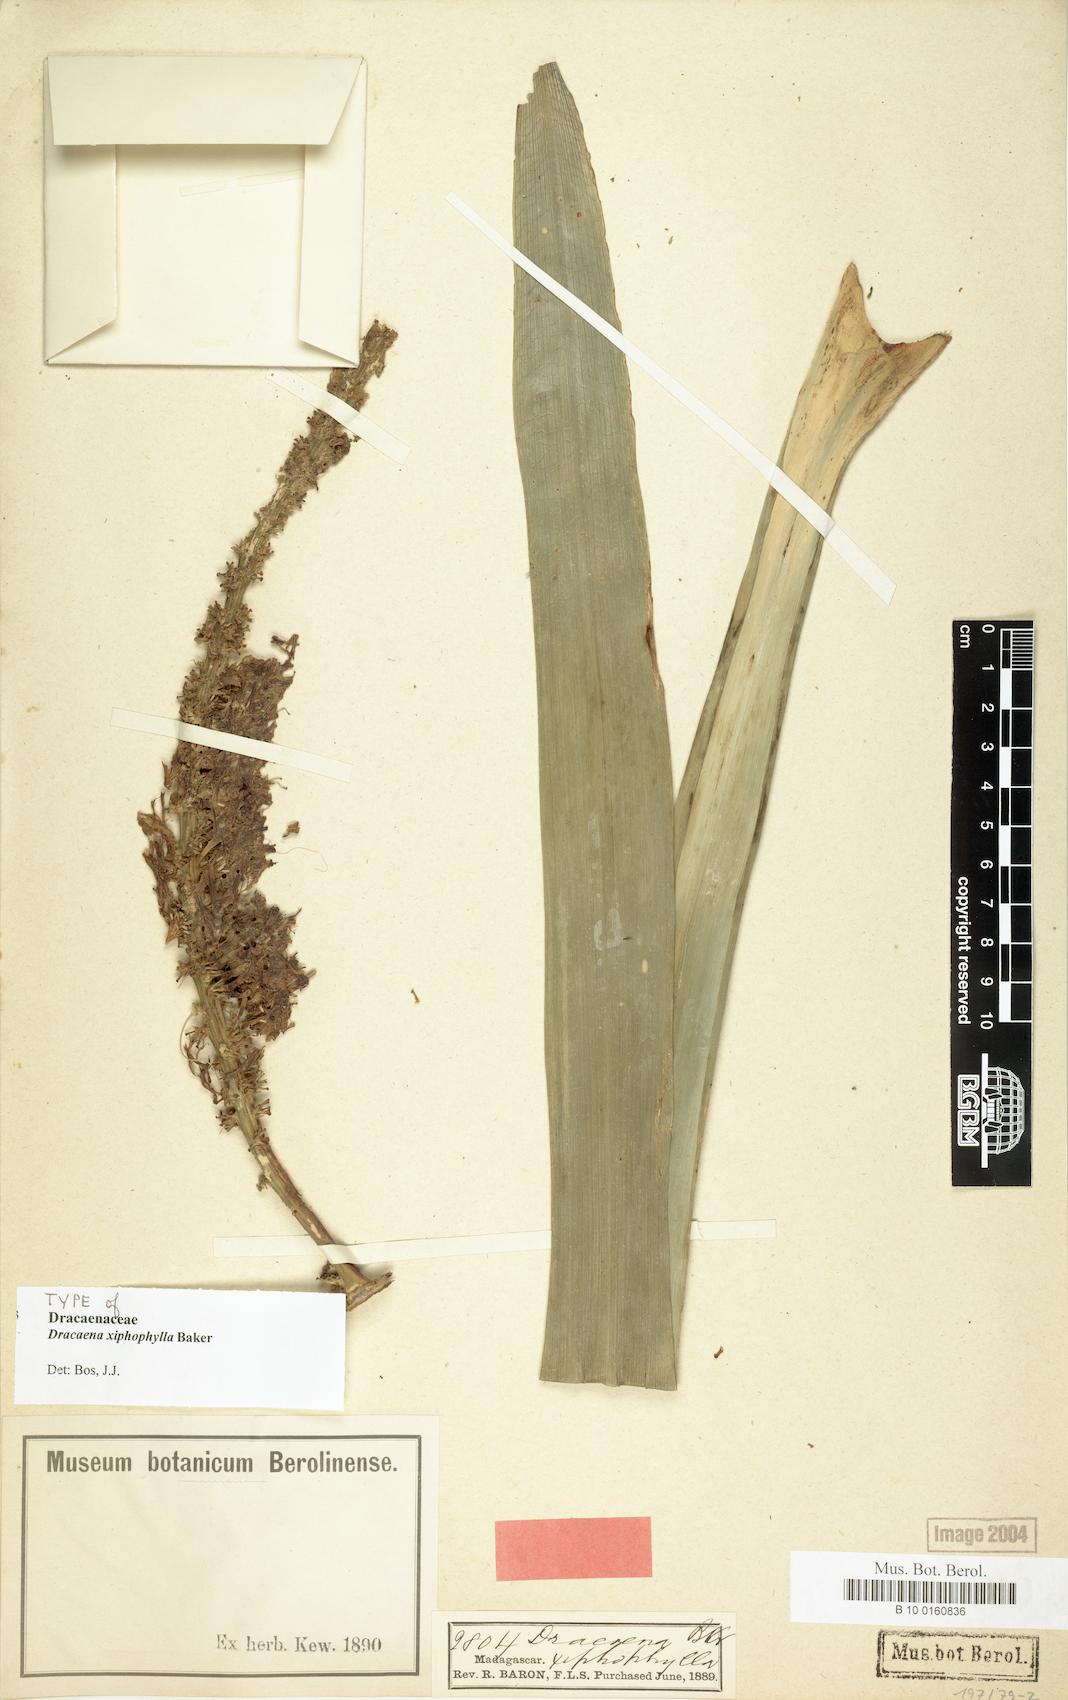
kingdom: Plantae
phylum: Tracheophyta
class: Liliopsida
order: Asparagales
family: Asparagaceae
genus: Dracaena
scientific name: Dracaena xiphophylla
